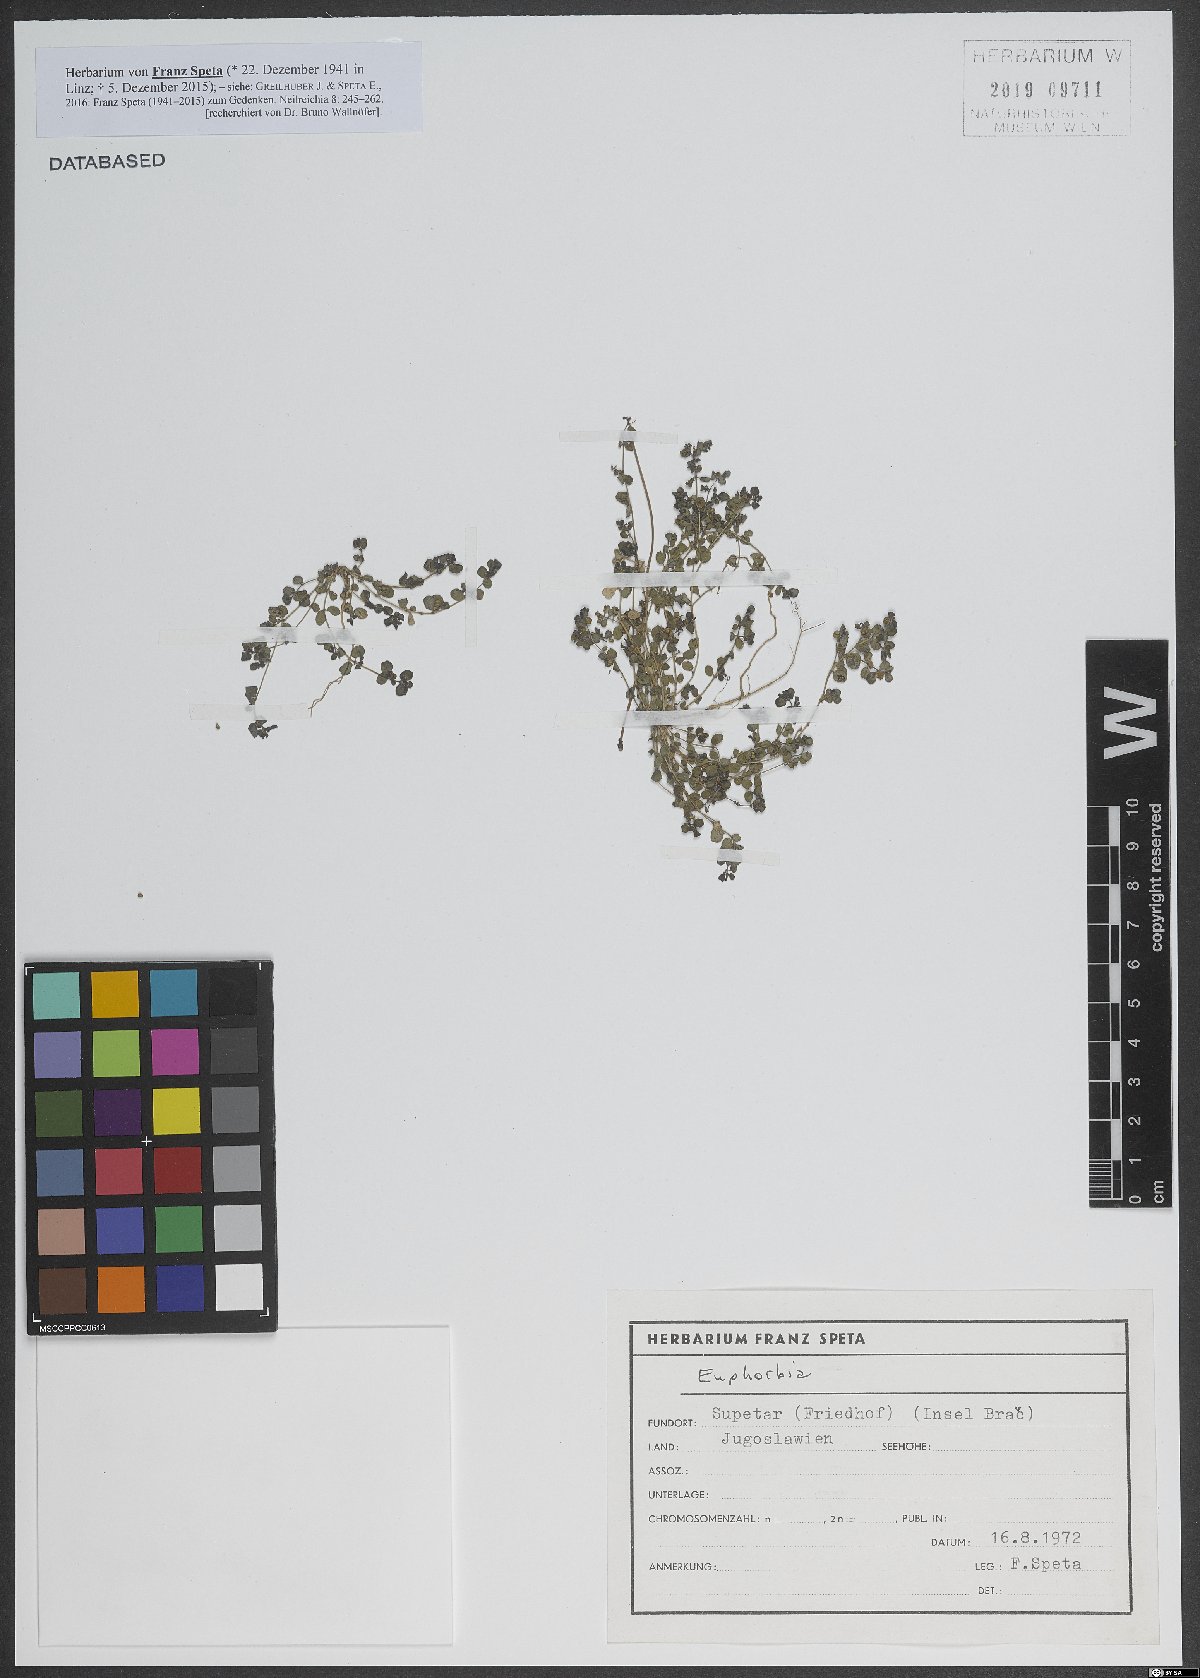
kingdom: Plantae
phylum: Tracheophyta
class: Magnoliopsida
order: Malpighiales
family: Euphorbiaceae
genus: Euphorbia
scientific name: Euphorbia
